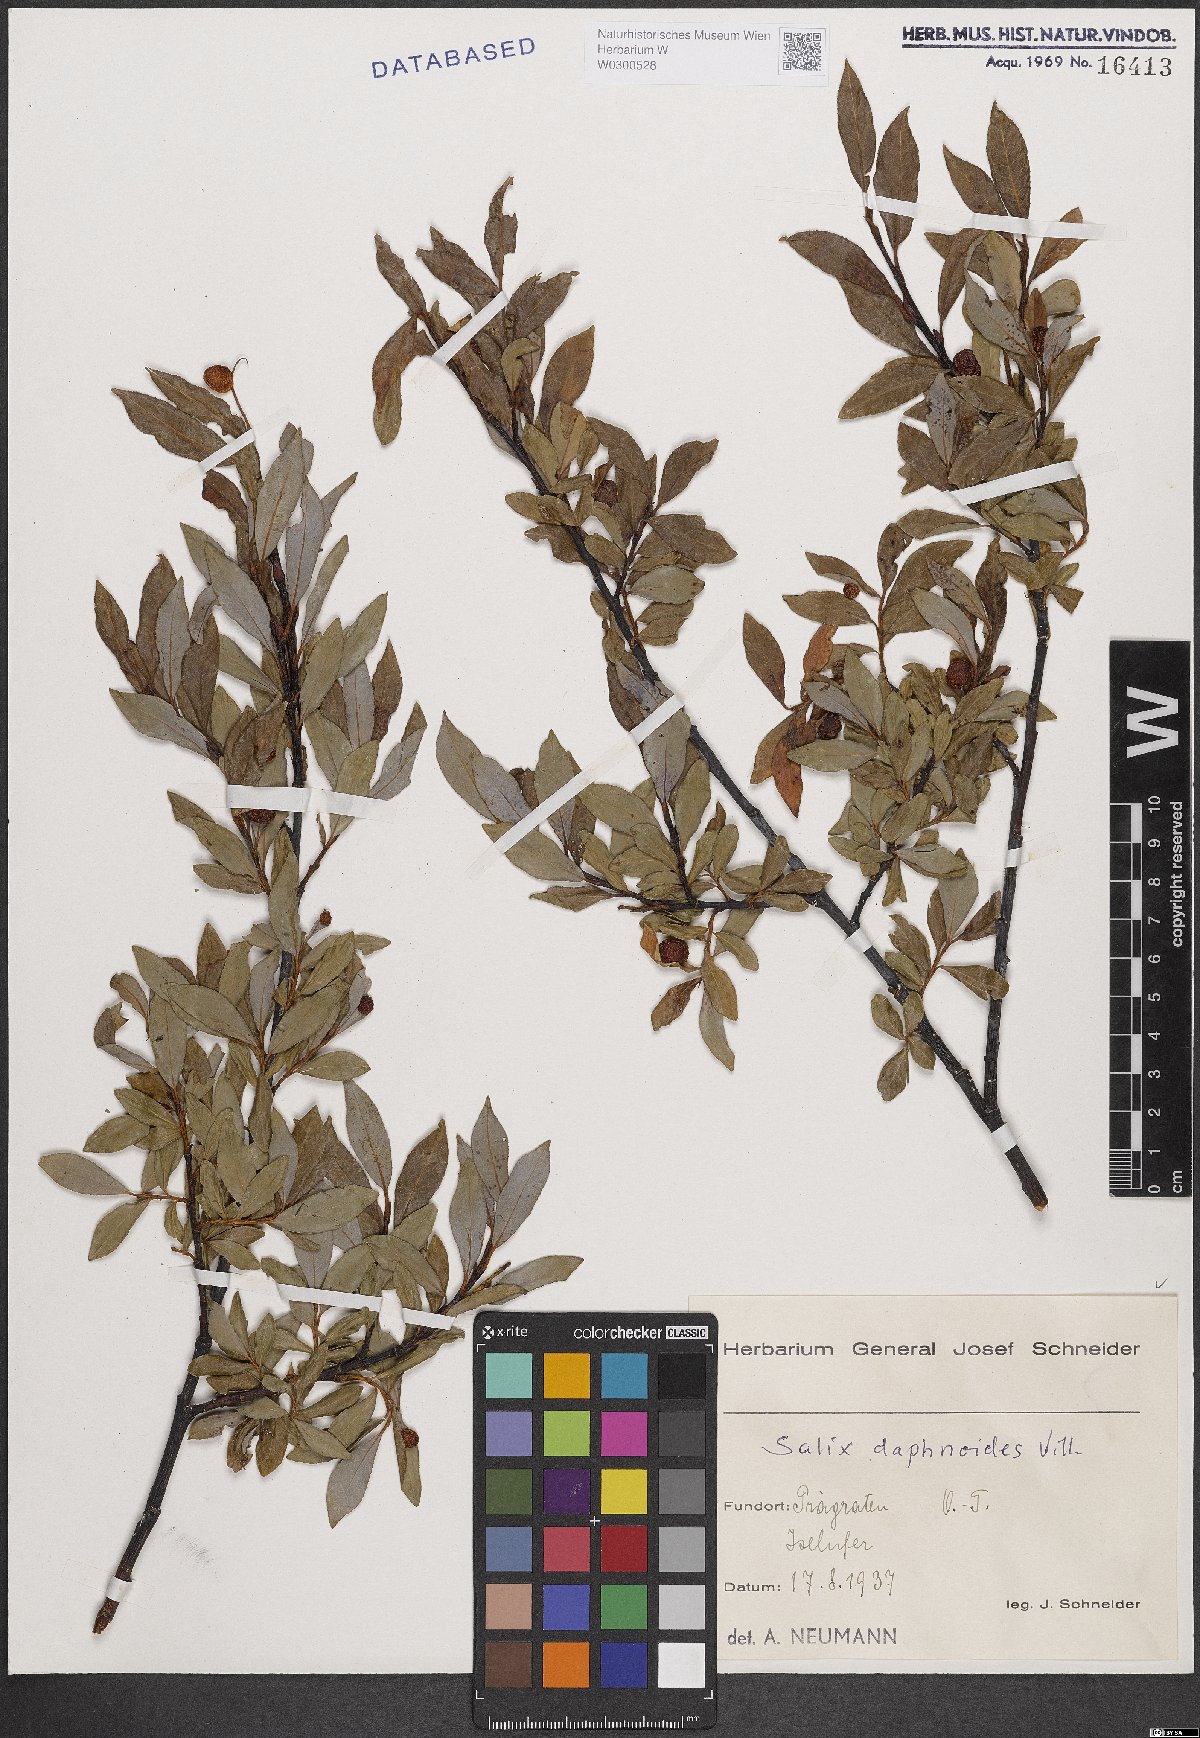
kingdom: Plantae
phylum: Tracheophyta
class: Magnoliopsida
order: Malpighiales
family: Salicaceae
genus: Salix
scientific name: Salix daphnoides
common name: European violet-willow
